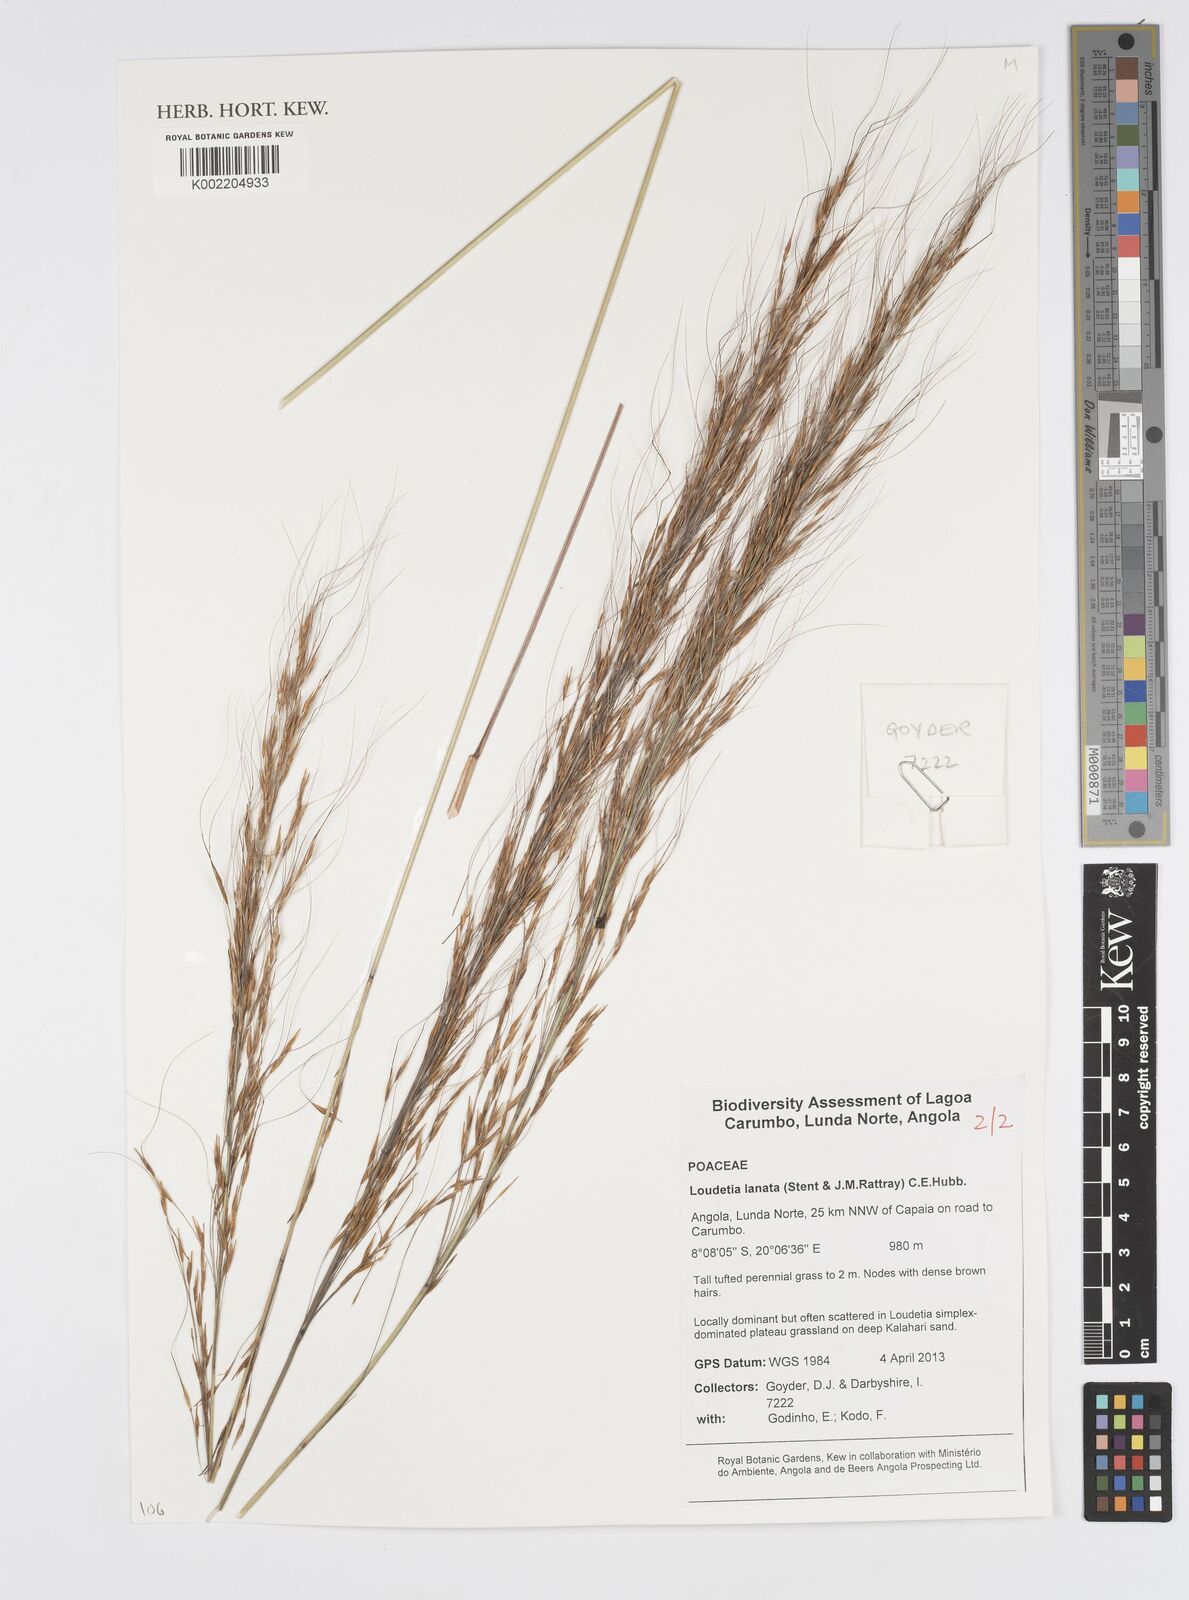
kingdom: Plantae
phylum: Tracheophyta
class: Liliopsida
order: Poales
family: Poaceae
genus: Loudetia
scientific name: Loudetia lanata
